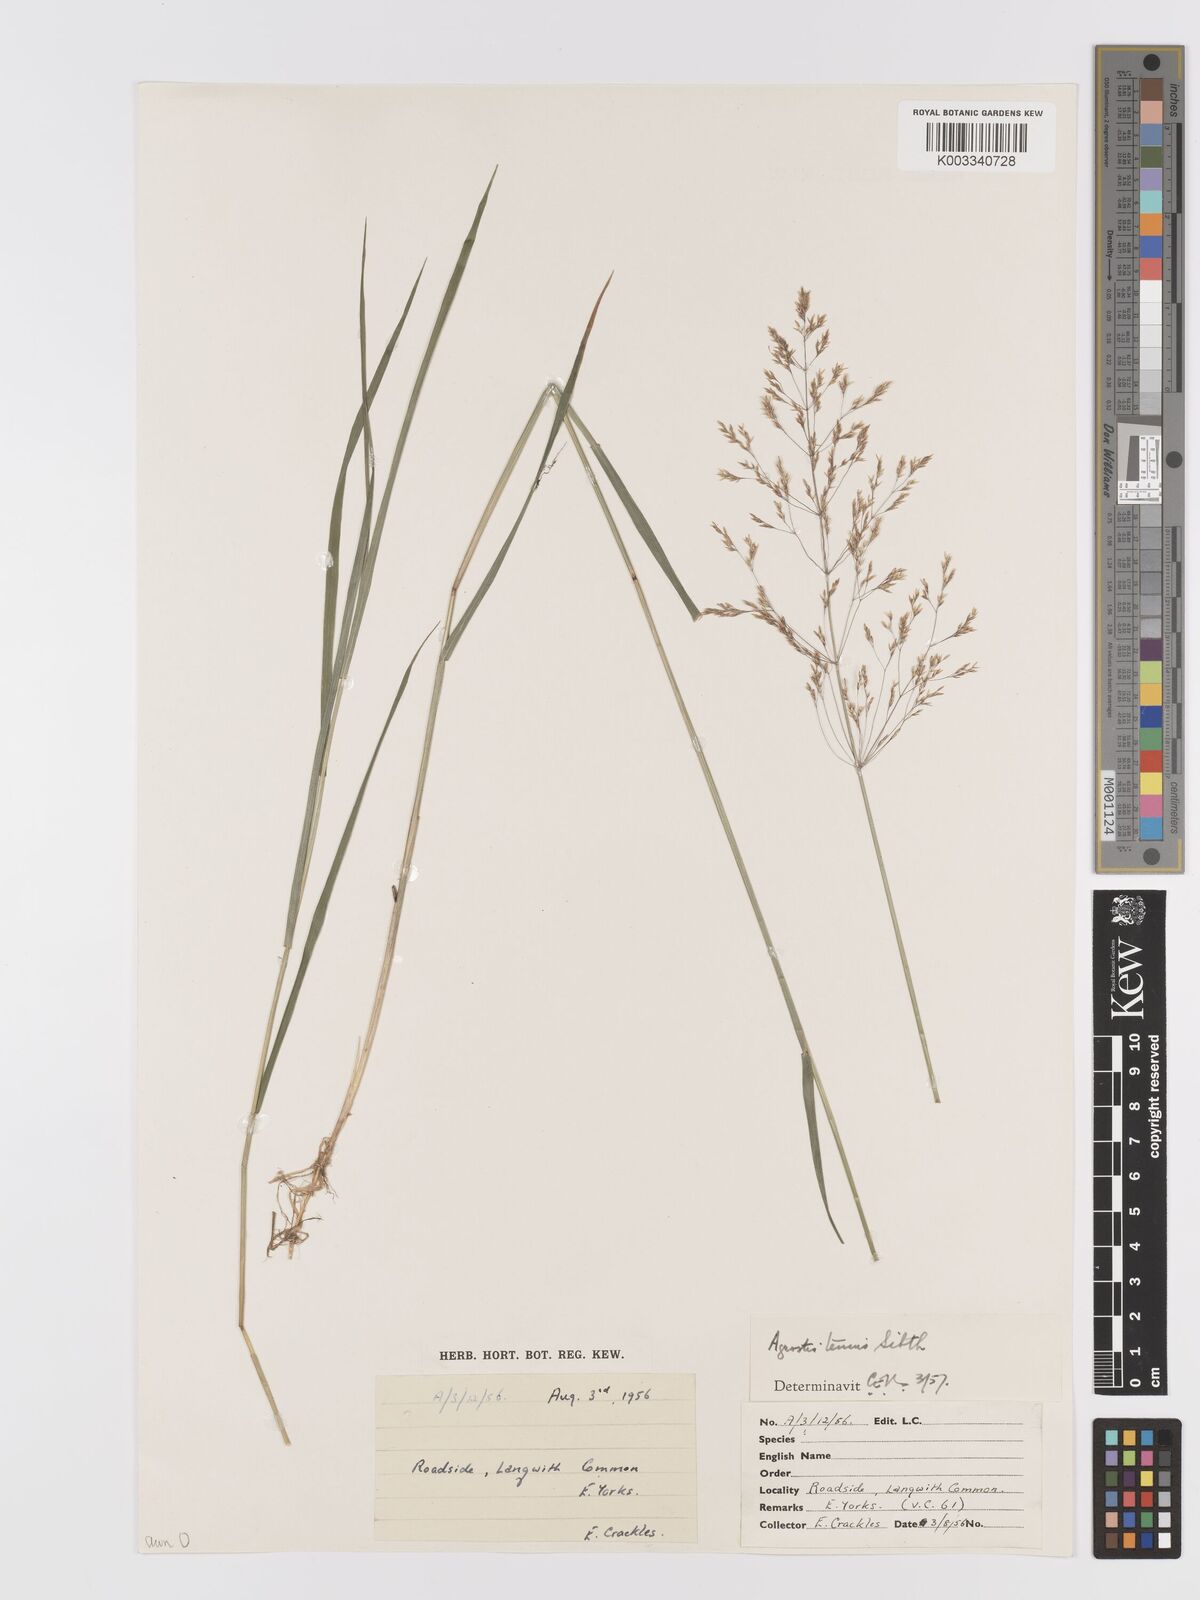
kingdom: Plantae
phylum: Tracheophyta
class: Liliopsida
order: Poales
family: Poaceae
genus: Agrostis
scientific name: Agrostis capillaris
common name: Colonial bentgrass
